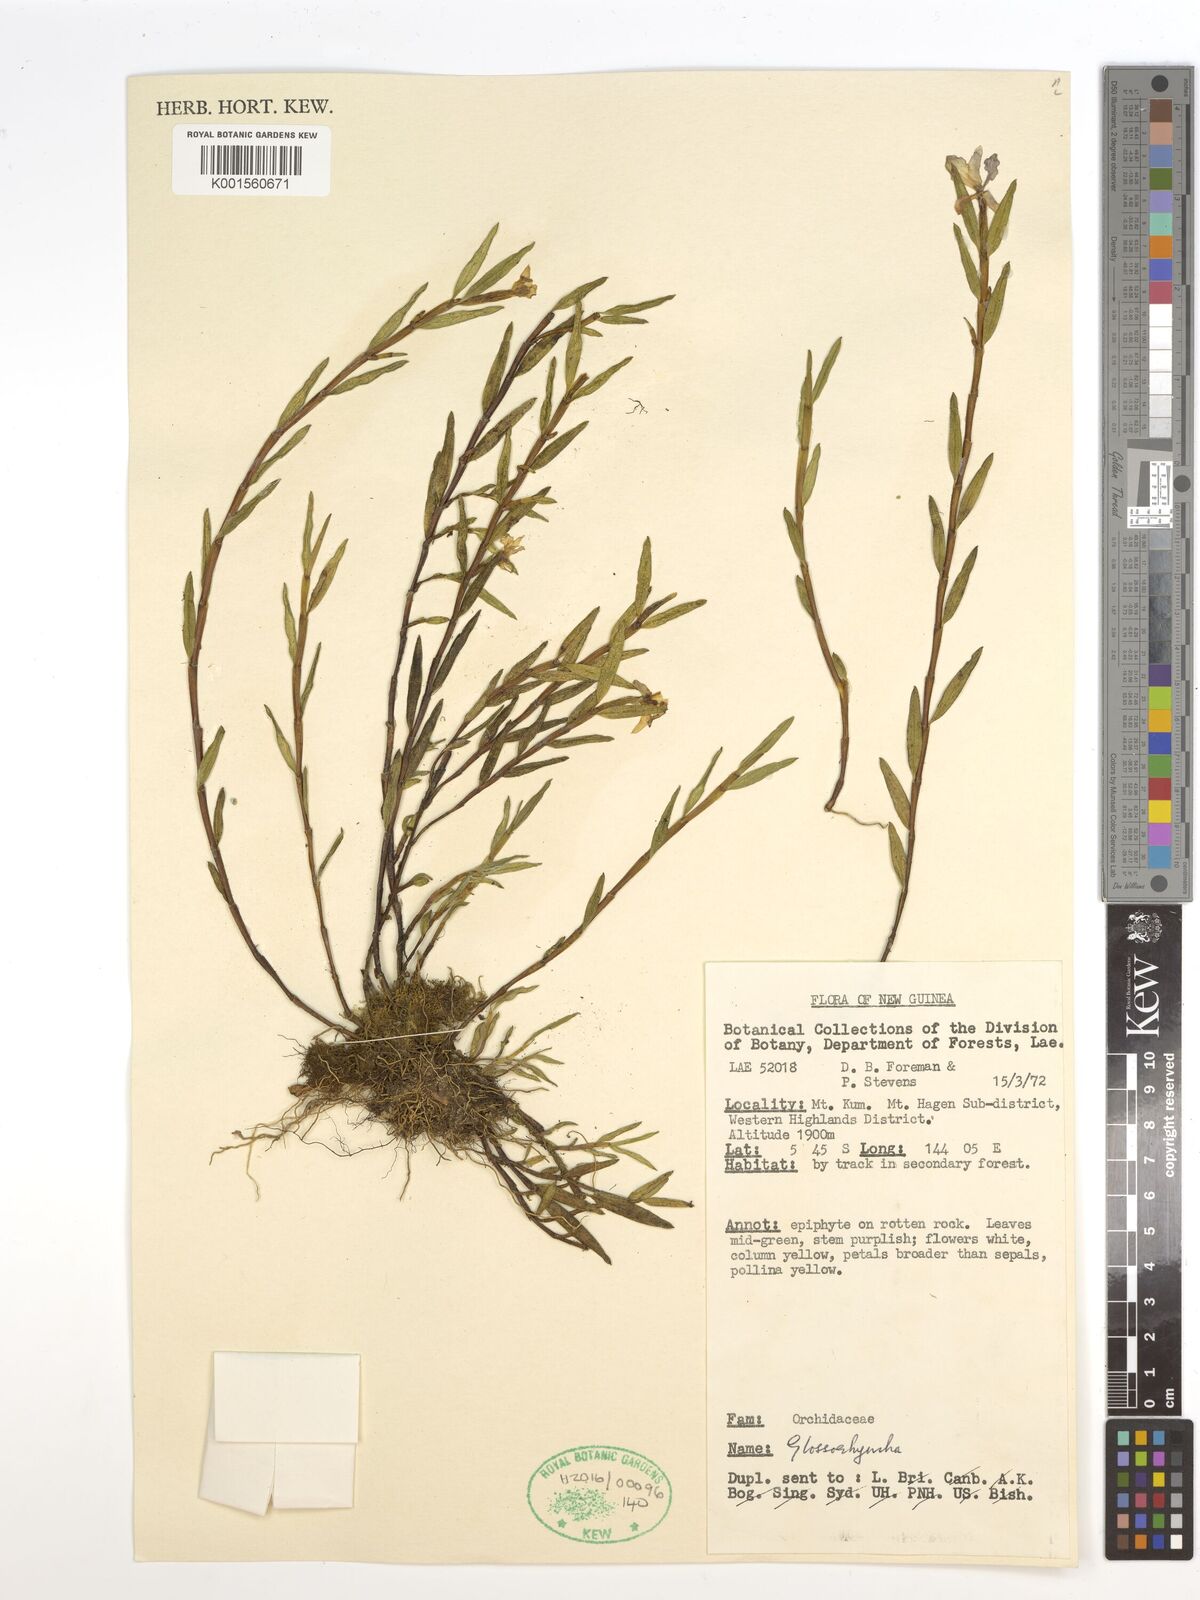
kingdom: Plantae
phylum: Tracheophyta
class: Liliopsida
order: Asparagales
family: Orchidaceae
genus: Glomera
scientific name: Glomera
